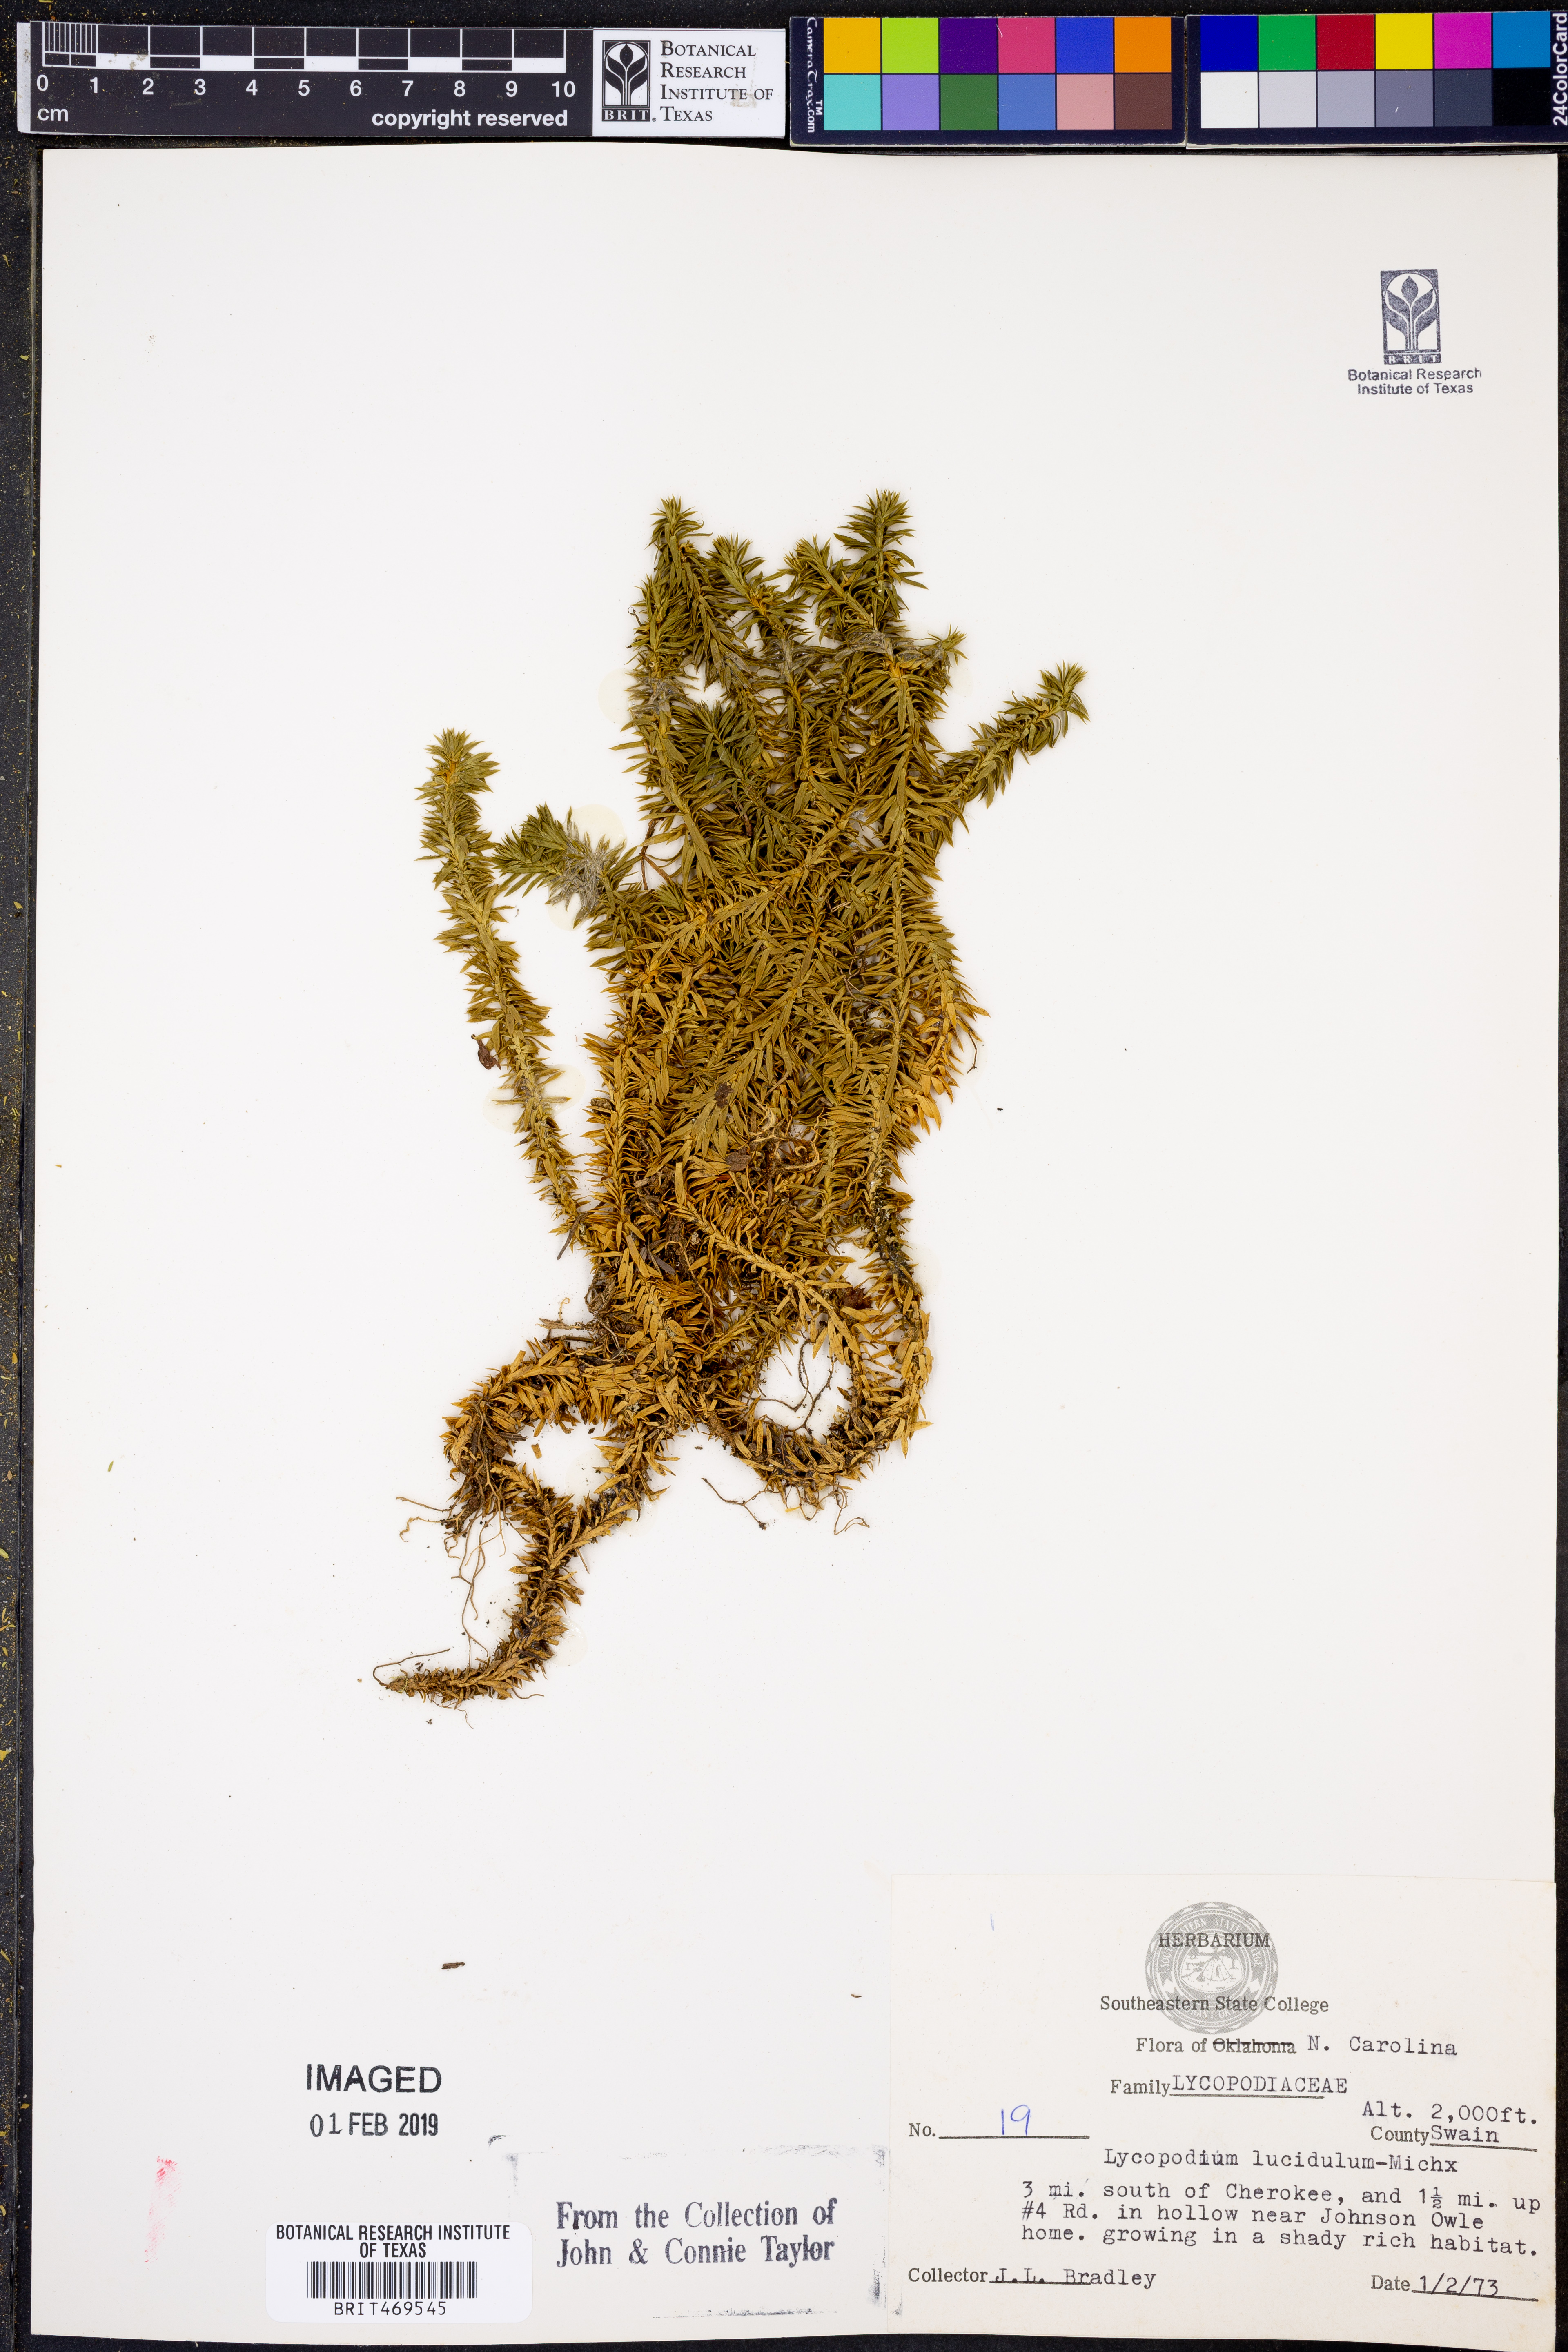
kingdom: Plantae
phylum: Tracheophyta
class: Lycopodiopsida
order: Lycopodiales
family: Lycopodiaceae
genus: Huperzia
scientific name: Huperzia lucidula
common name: Shining clubmoss
